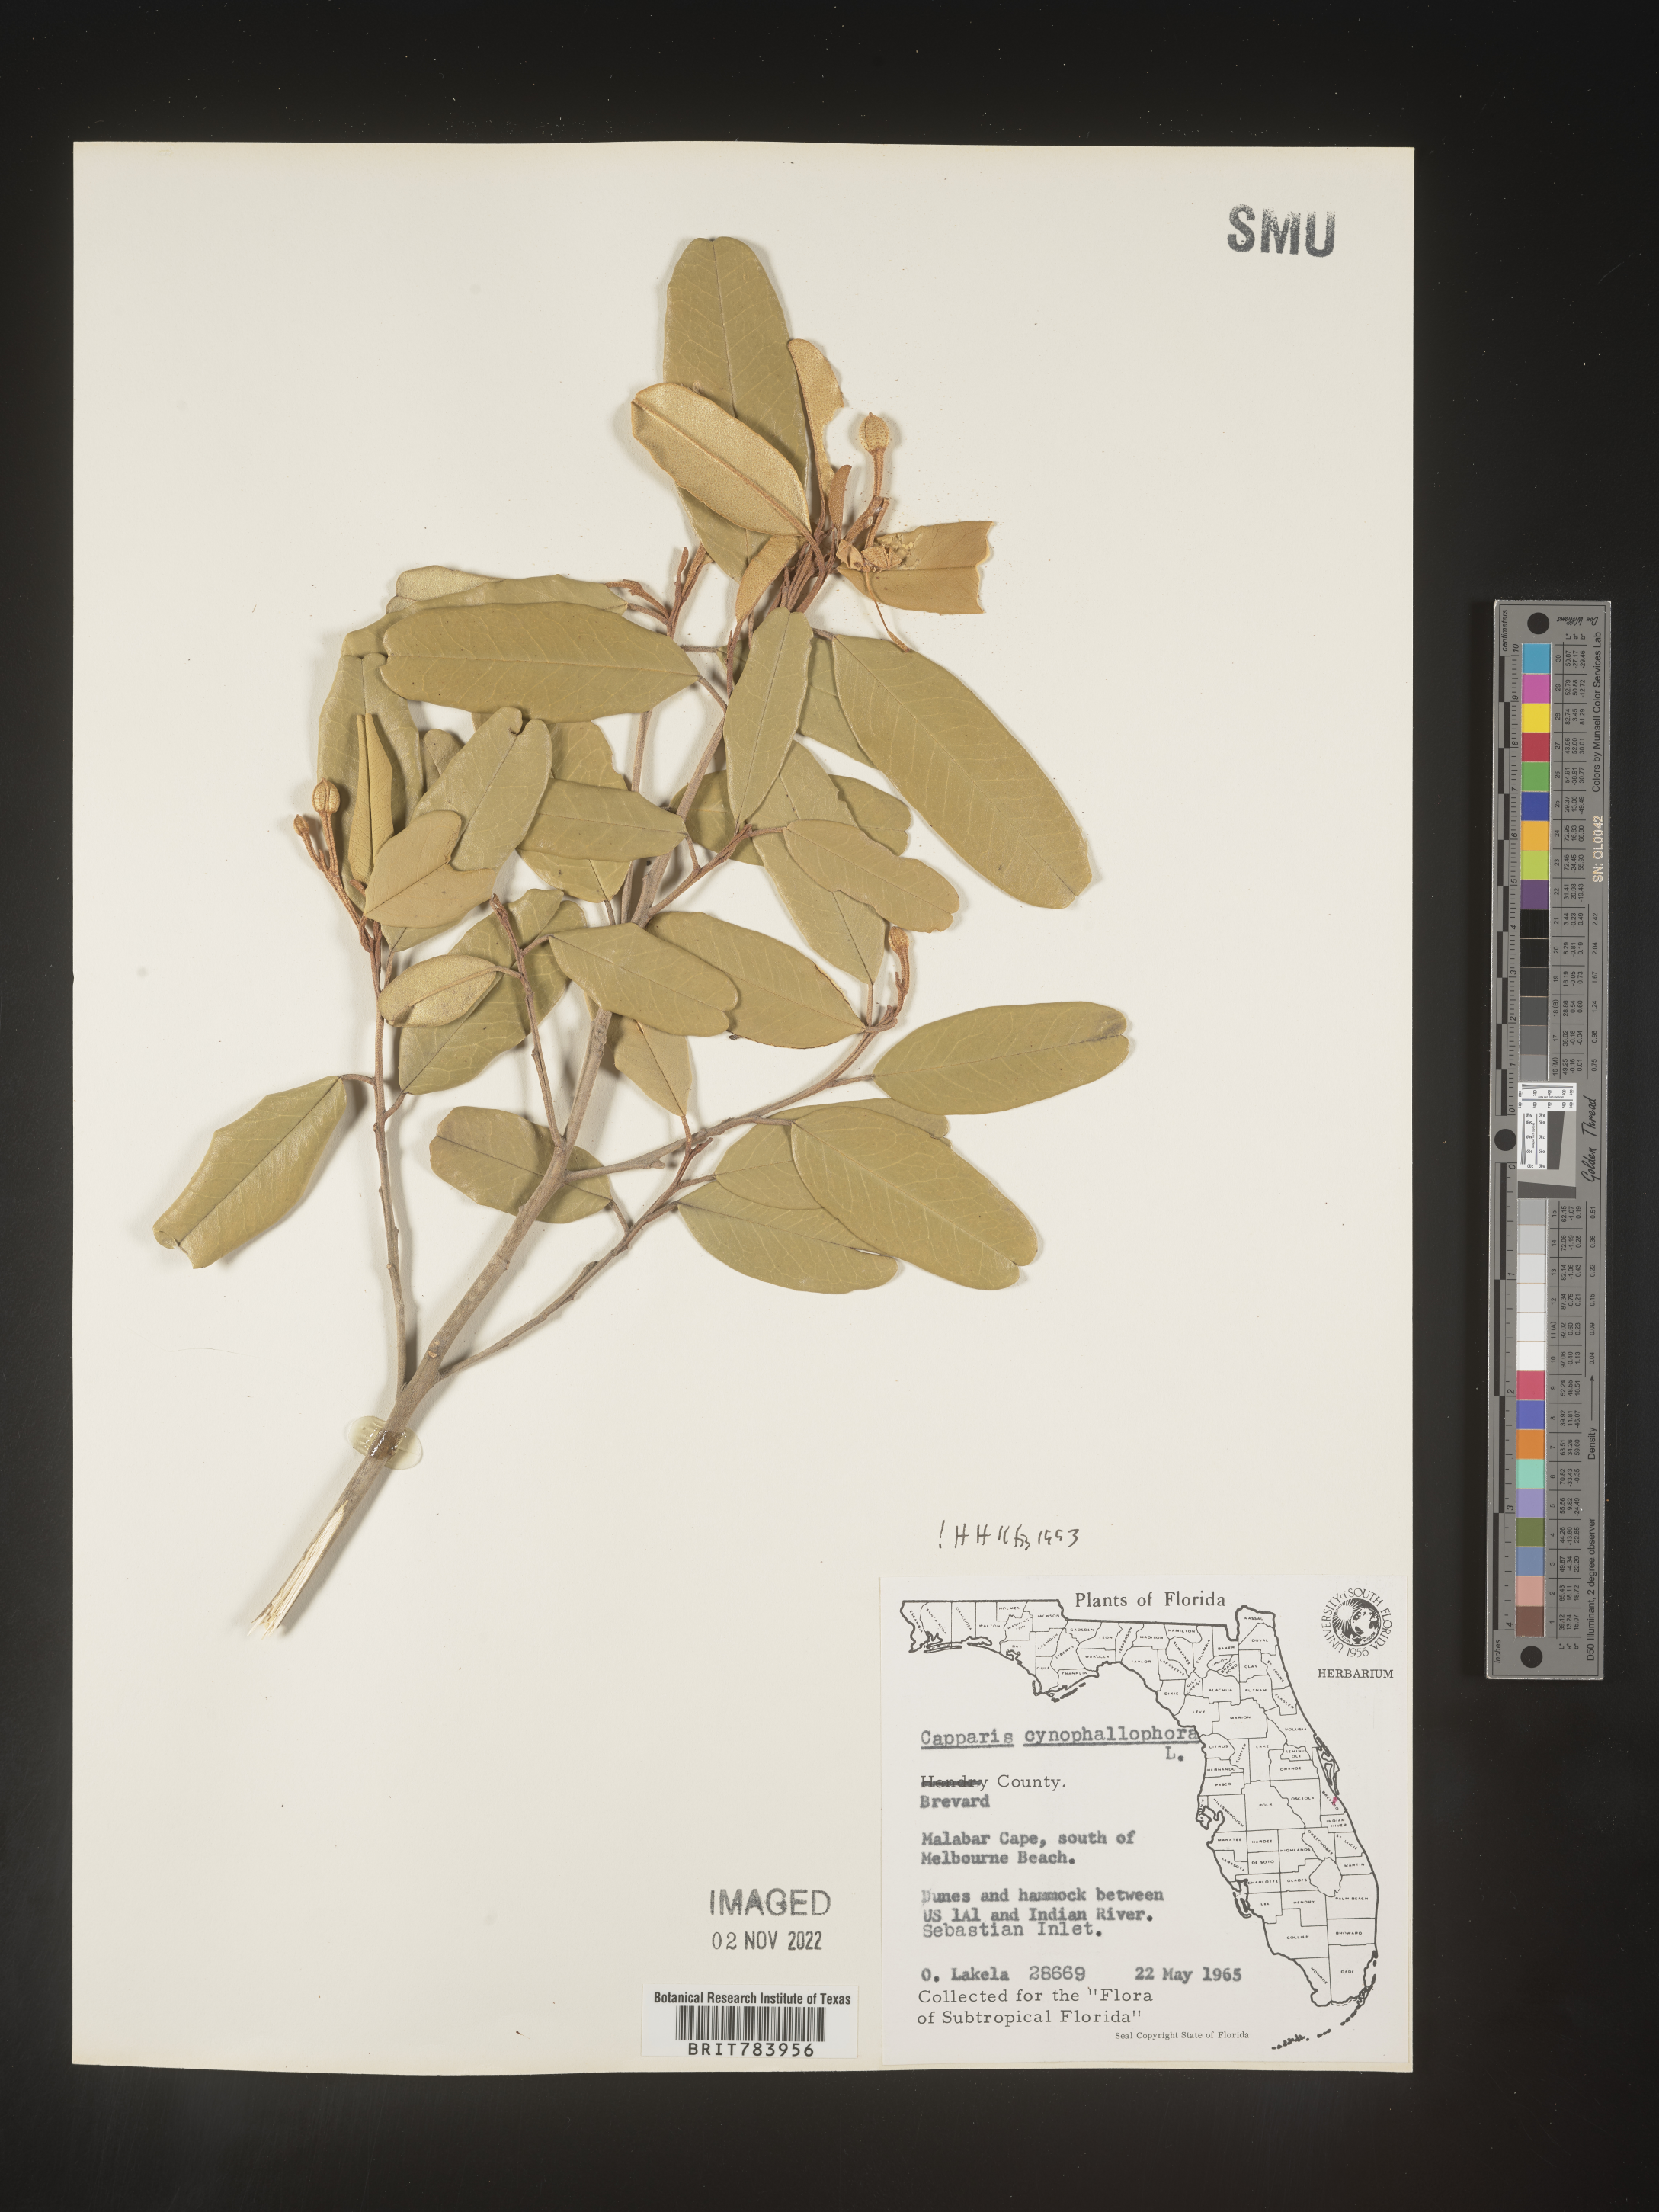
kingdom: Plantae
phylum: Tracheophyta
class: Magnoliopsida
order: Brassicales
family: Capparaceae
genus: Capparis
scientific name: Capparis
